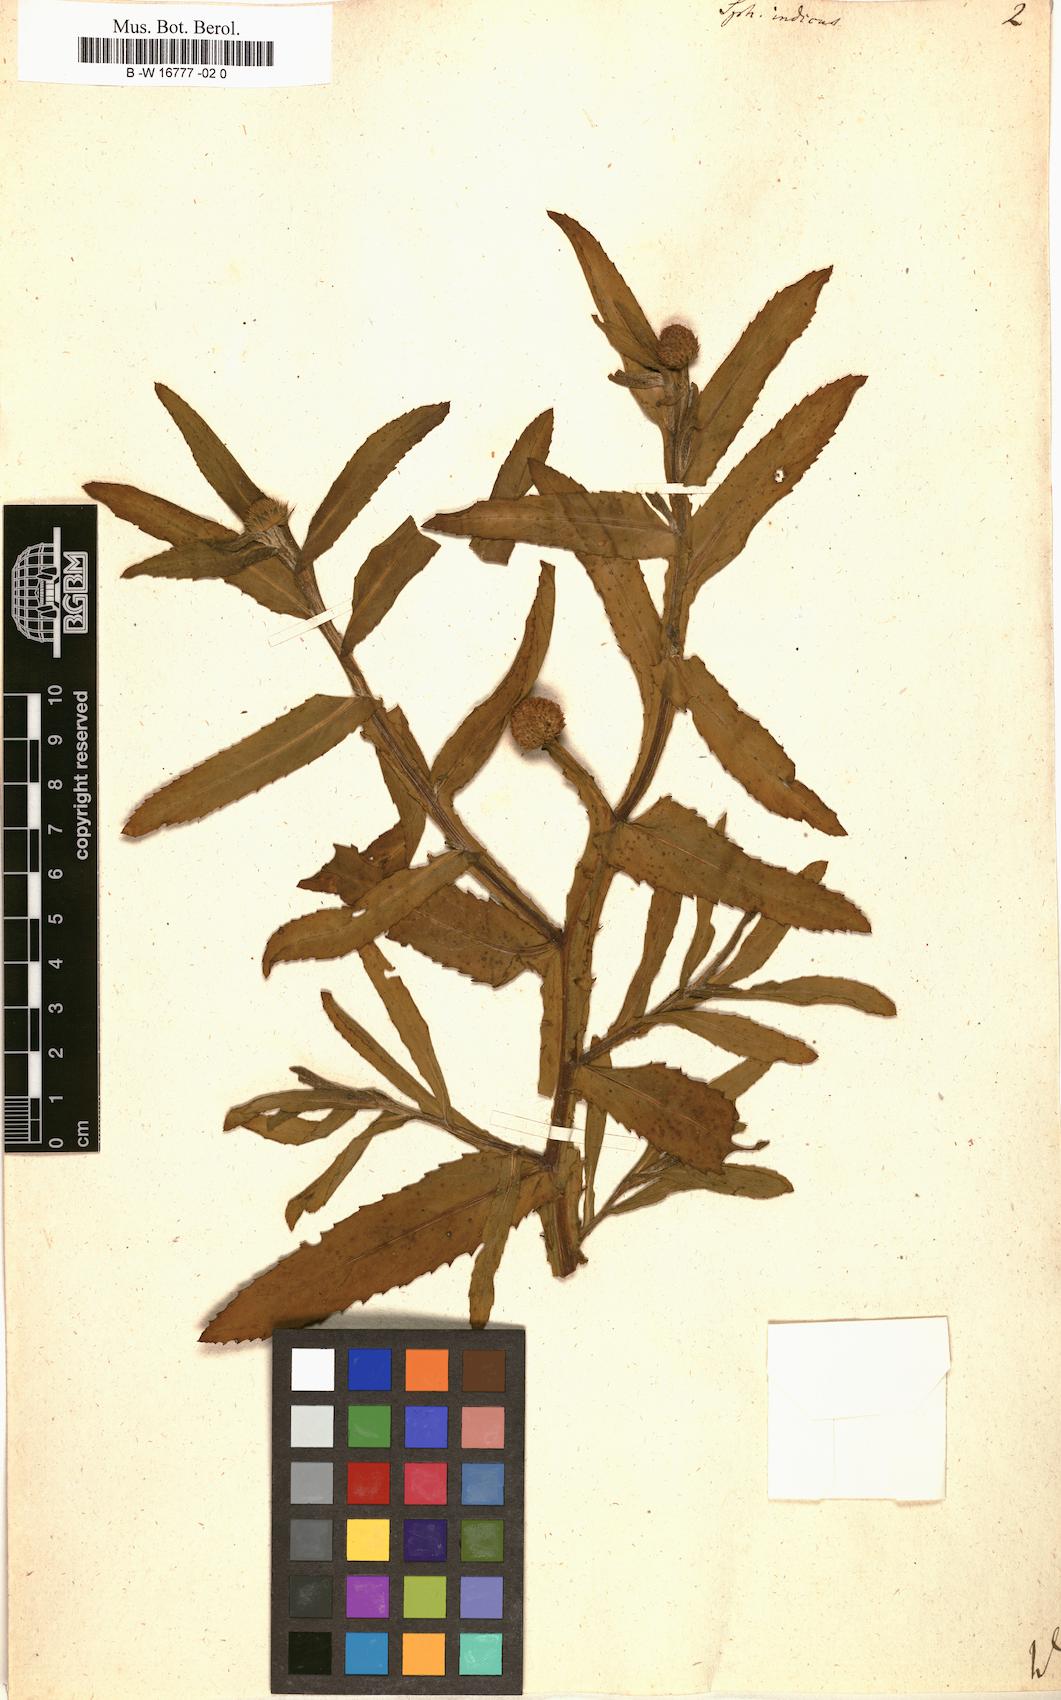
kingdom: Plantae
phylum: Tracheophyta
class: Magnoliopsida
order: Asterales
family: Asteraceae
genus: Sphaeranthus
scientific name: Sphaeranthus indicus
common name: East indian globe thistle
